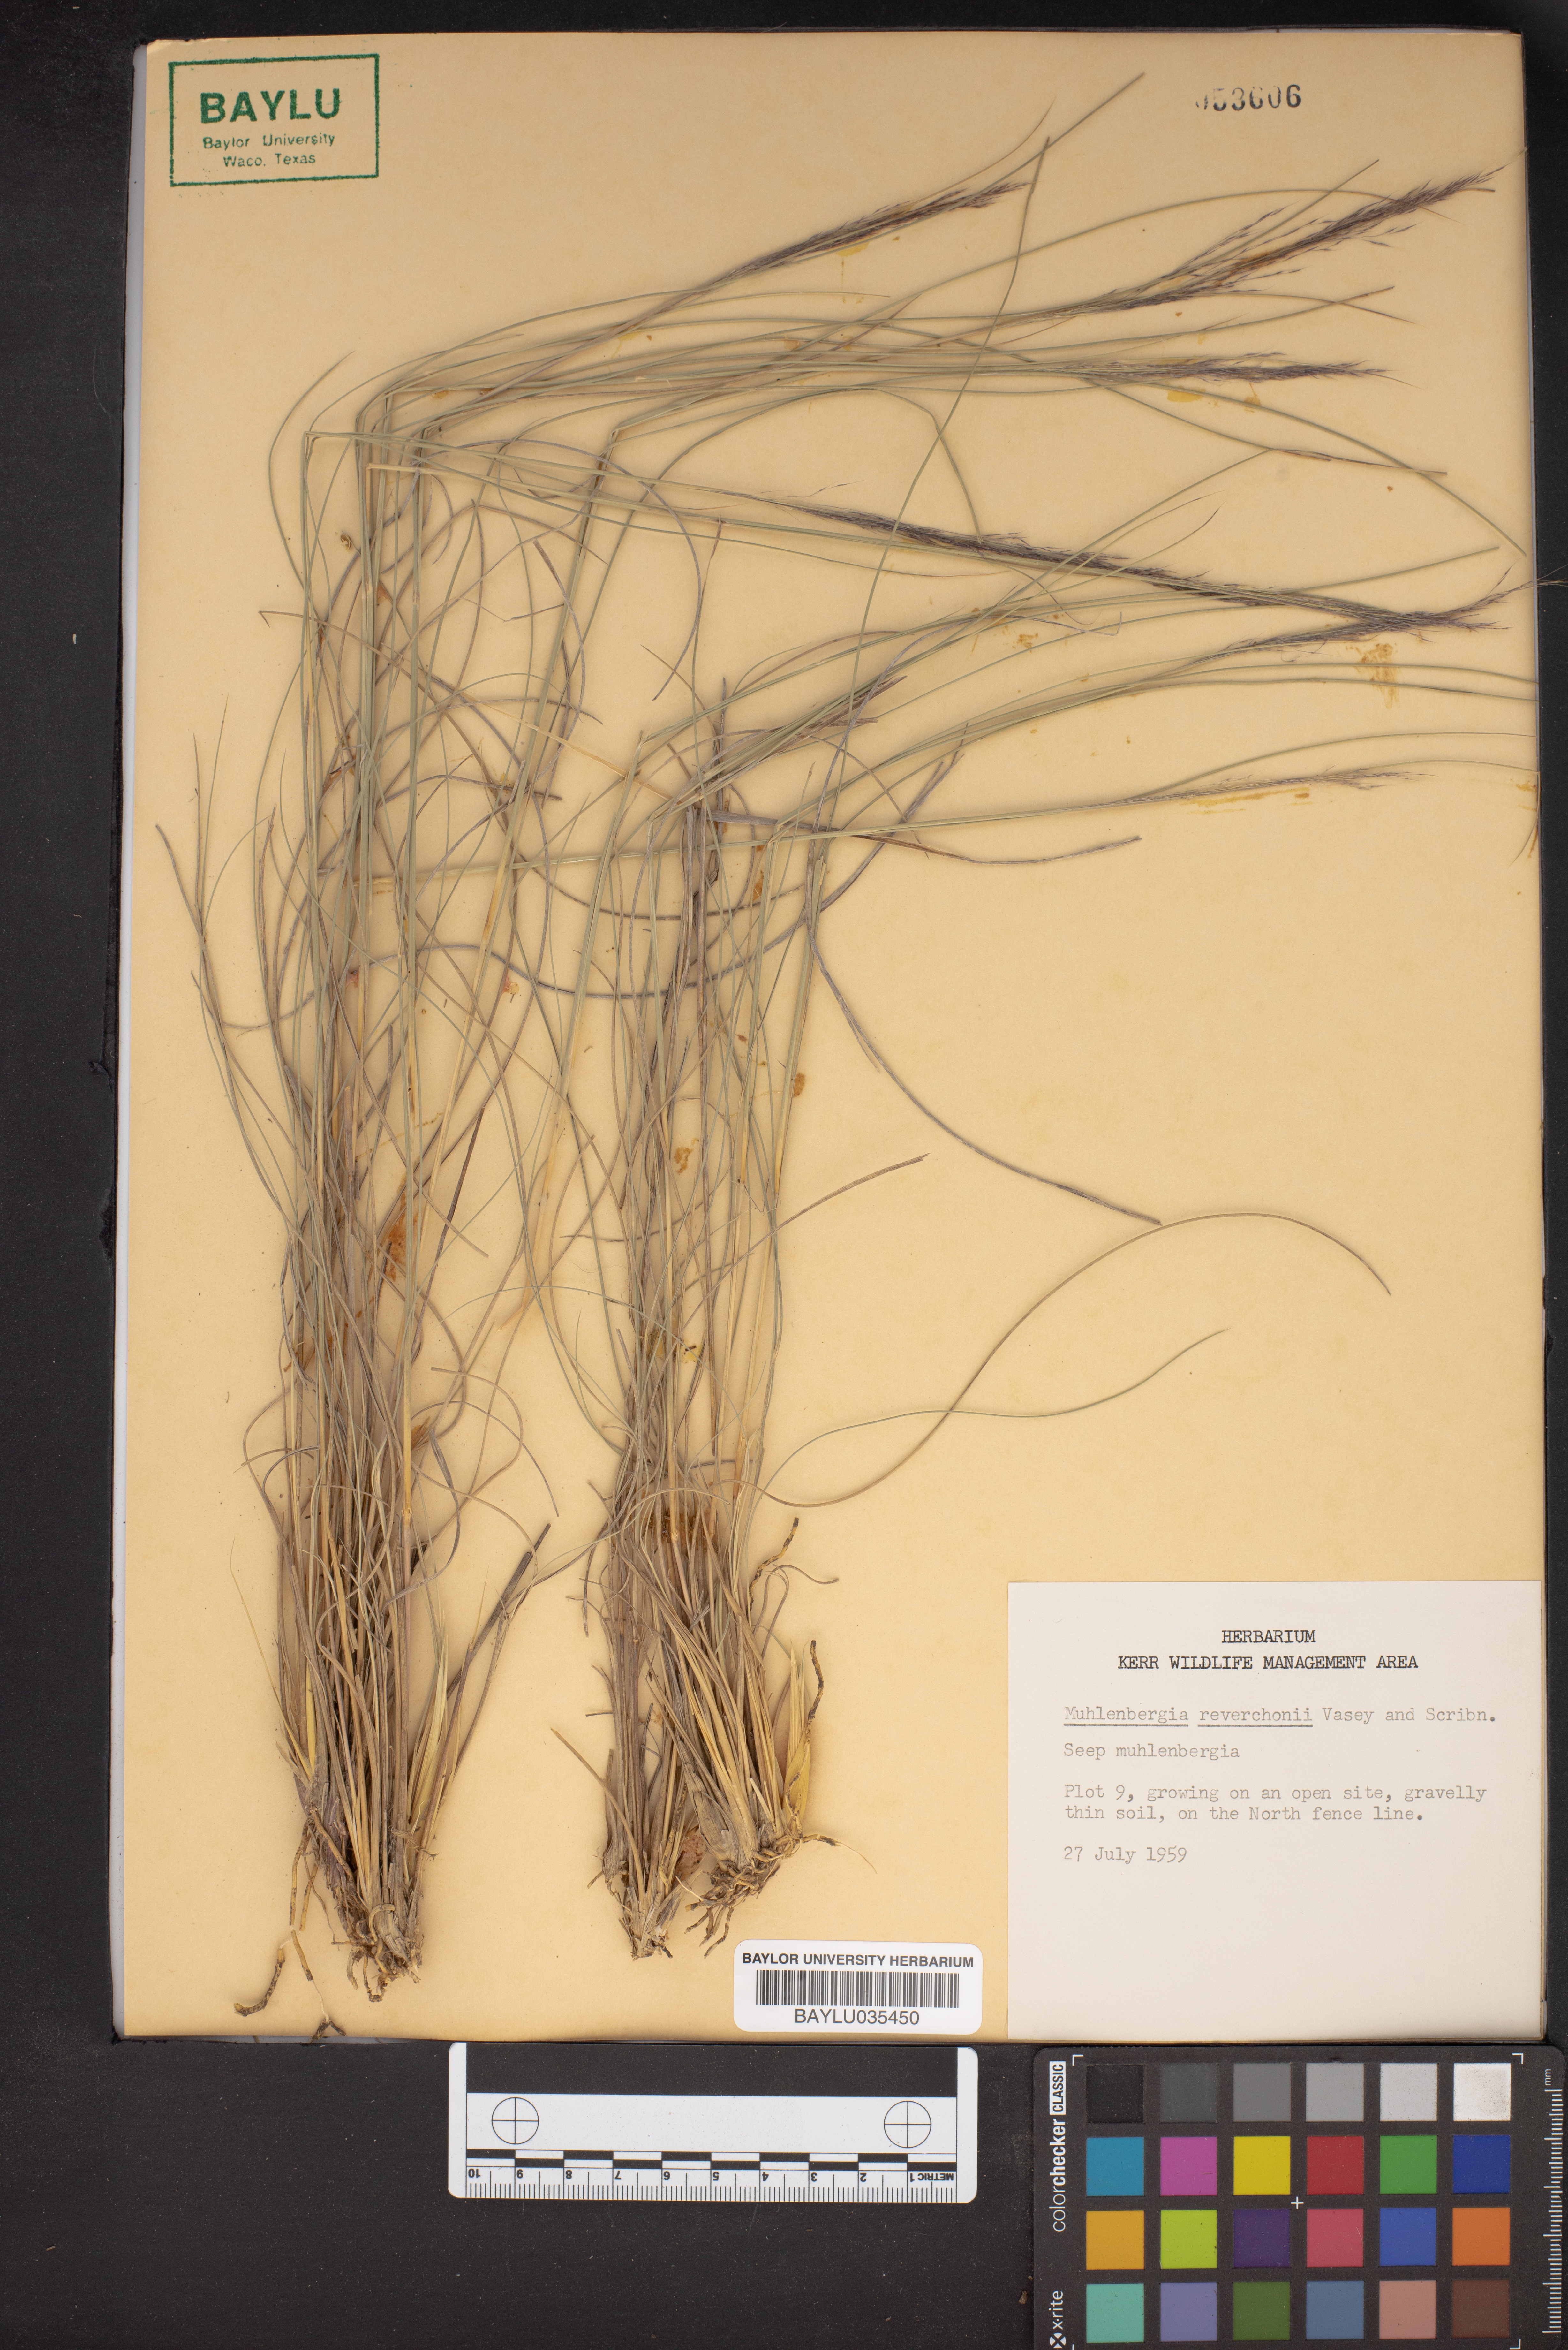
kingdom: Plantae
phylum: Tracheophyta
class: Liliopsida
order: Poales
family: Poaceae
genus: Muhlenbergia
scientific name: Muhlenbergia reverchonii
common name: Seep muhly
